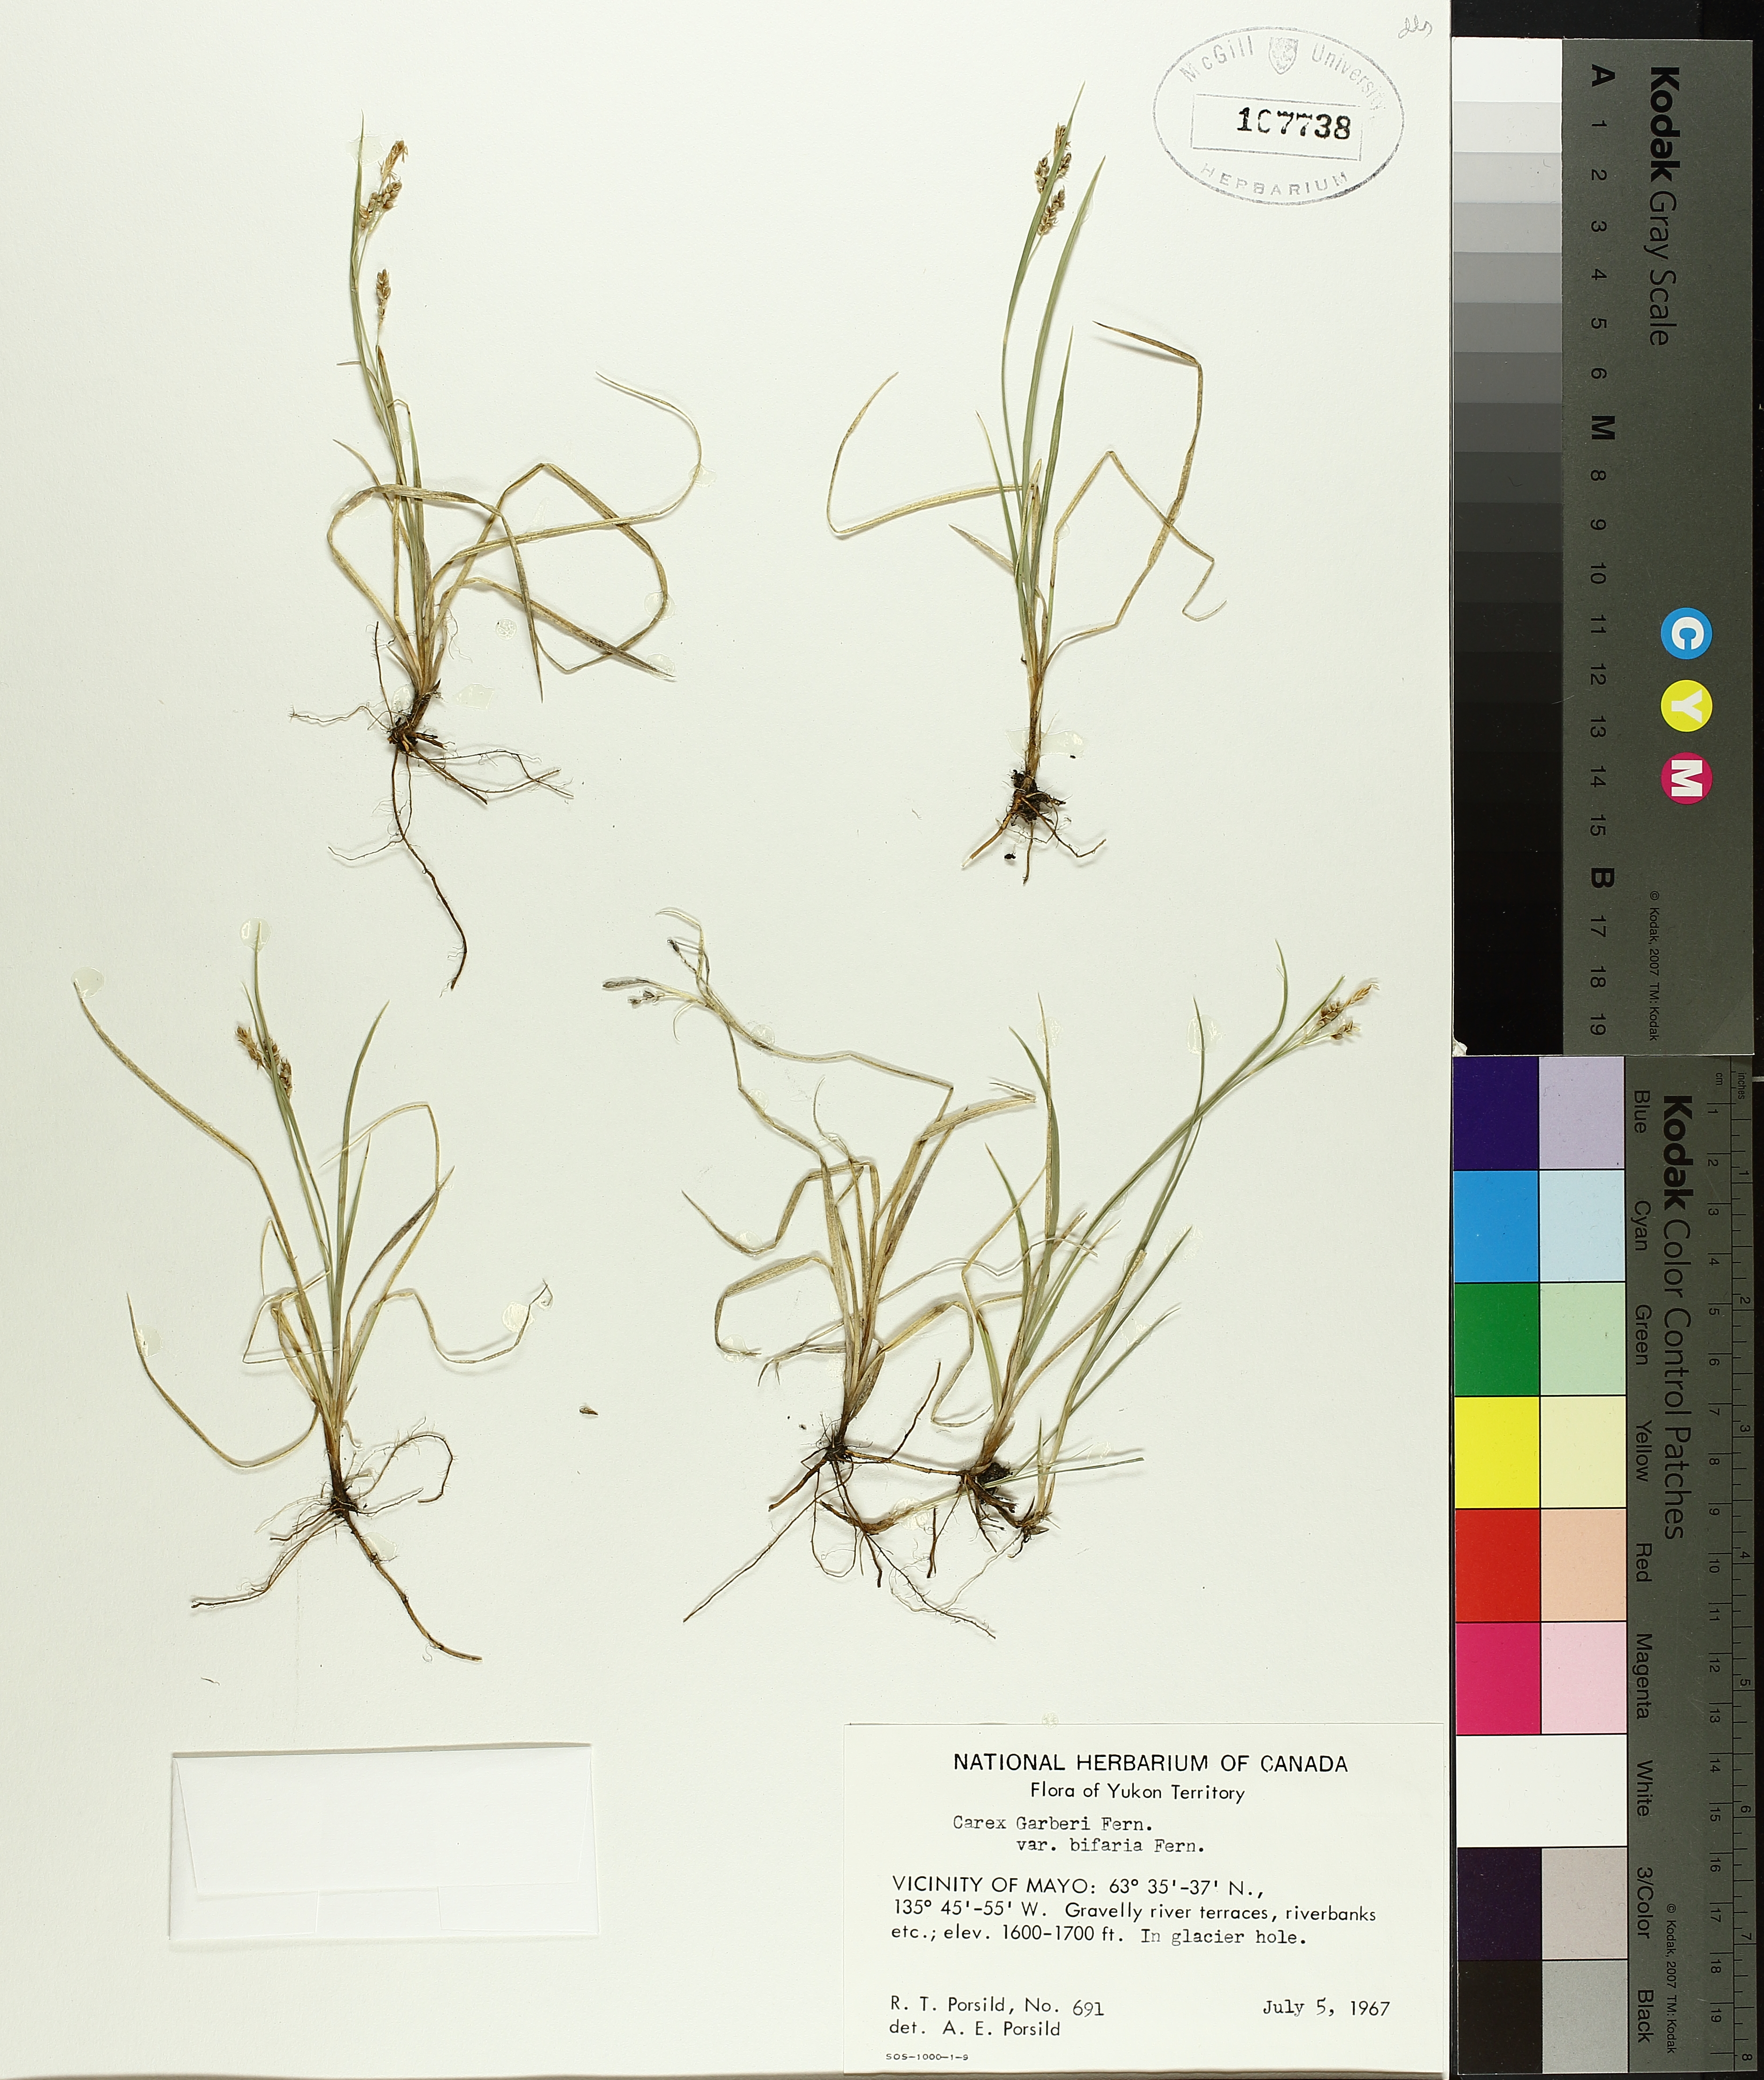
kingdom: Plantae
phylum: Tracheophyta
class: Liliopsida
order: Poales
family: Cyperaceae
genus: Carex
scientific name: Carex garberi
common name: Elk sedge
